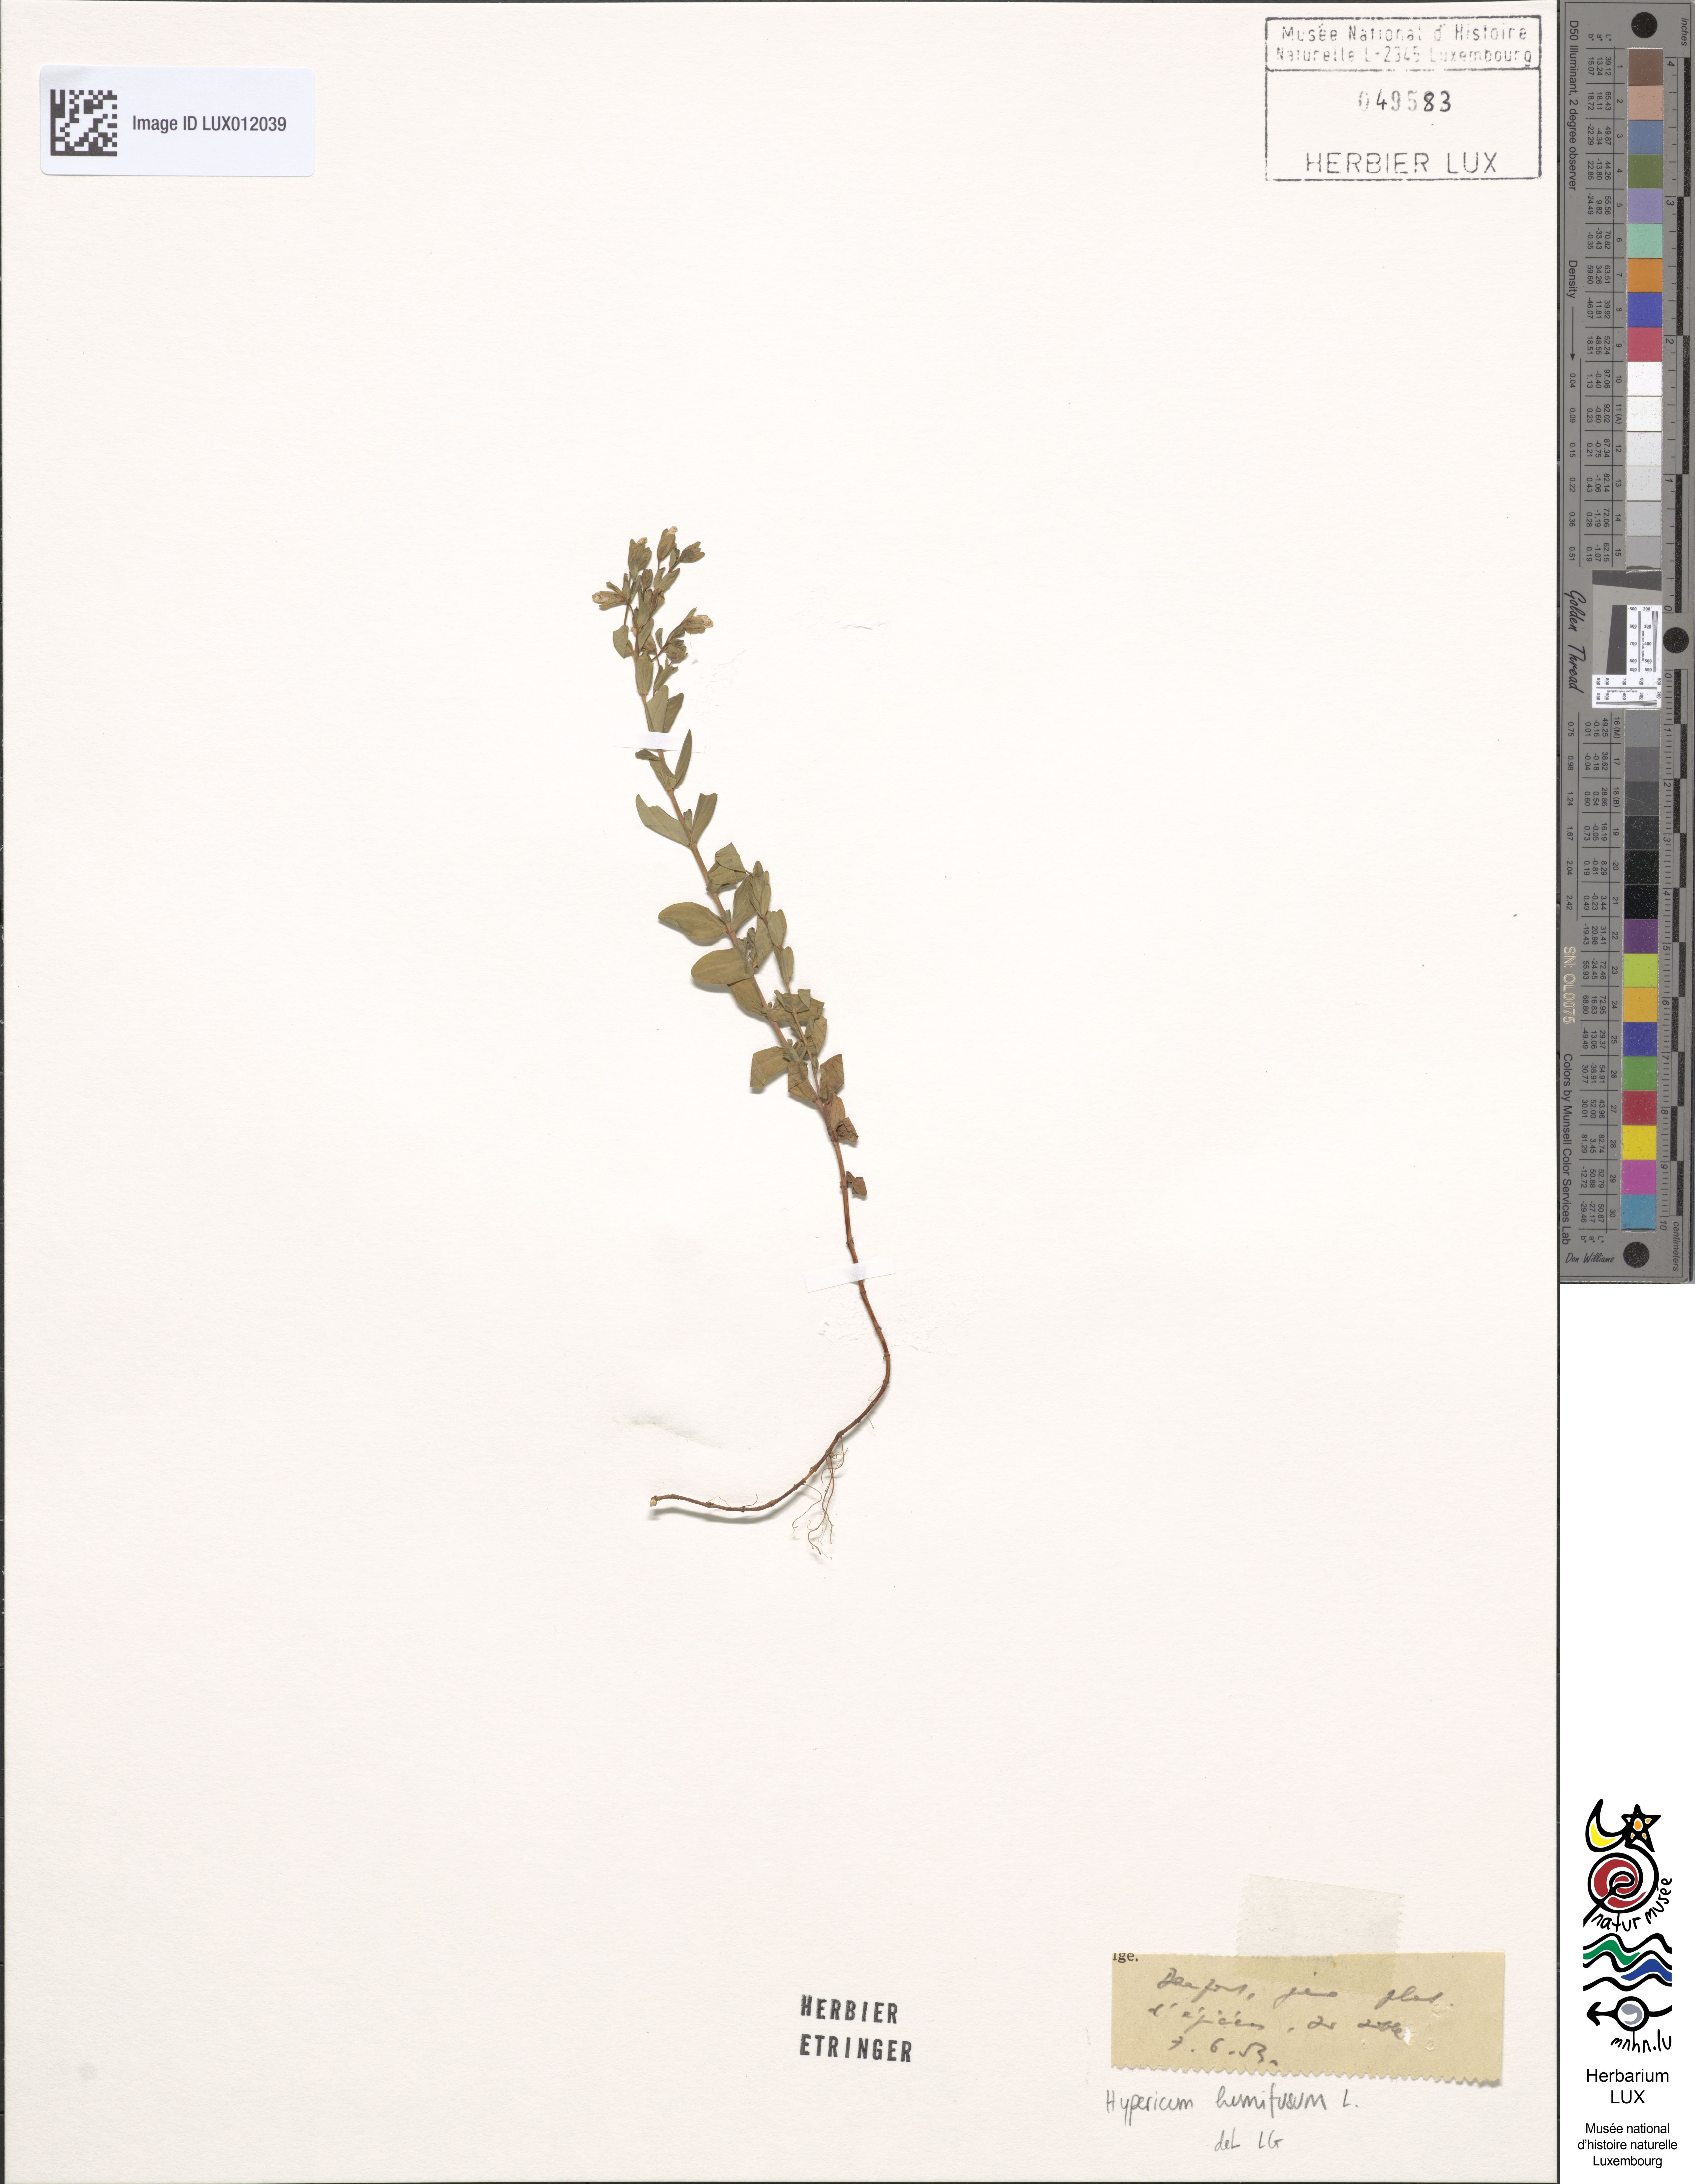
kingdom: Plantae
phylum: Tracheophyta
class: Magnoliopsida
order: Malpighiales
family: Hypericaceae
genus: Hypericum
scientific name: Hypericum humifusum
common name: Trailing st. john's-wort
